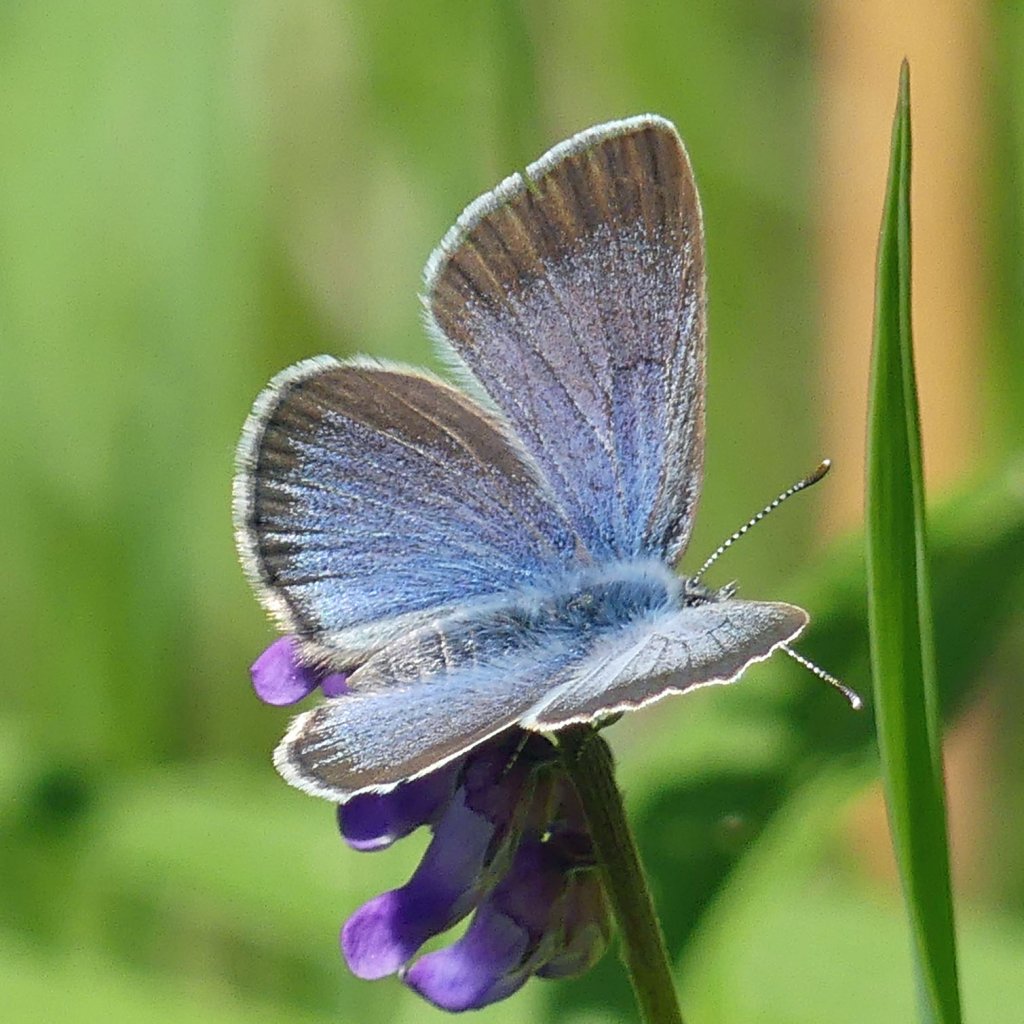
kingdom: Animalia
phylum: Arthropoda
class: Insecta
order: Lepidoptera
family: Lycaenidae
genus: Glaucopsyche
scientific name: Glaucopsyche lygdamus
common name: Silvery Blue
